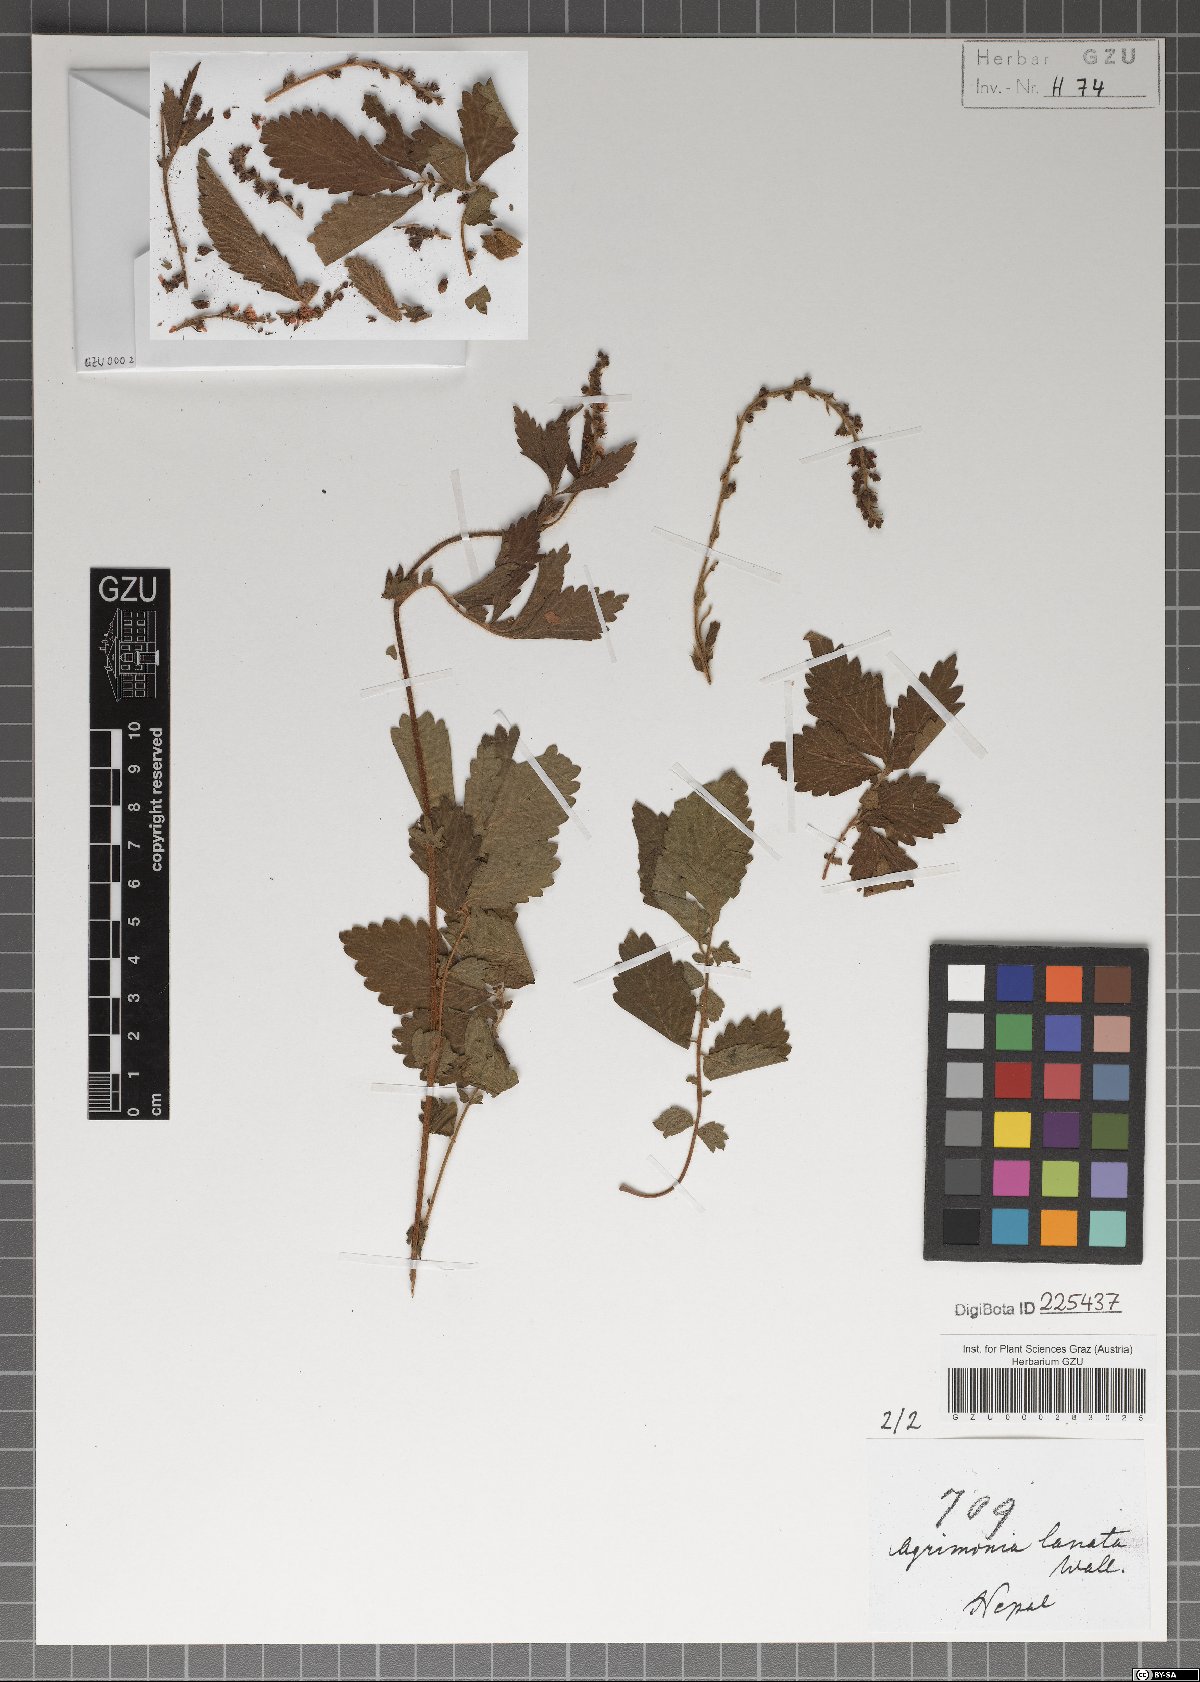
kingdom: Plantae
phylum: Tracheophyta
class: Magnoliopsida
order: Rosales
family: Rosaceae
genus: Agrimonia
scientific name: Agrimonia pilosa
